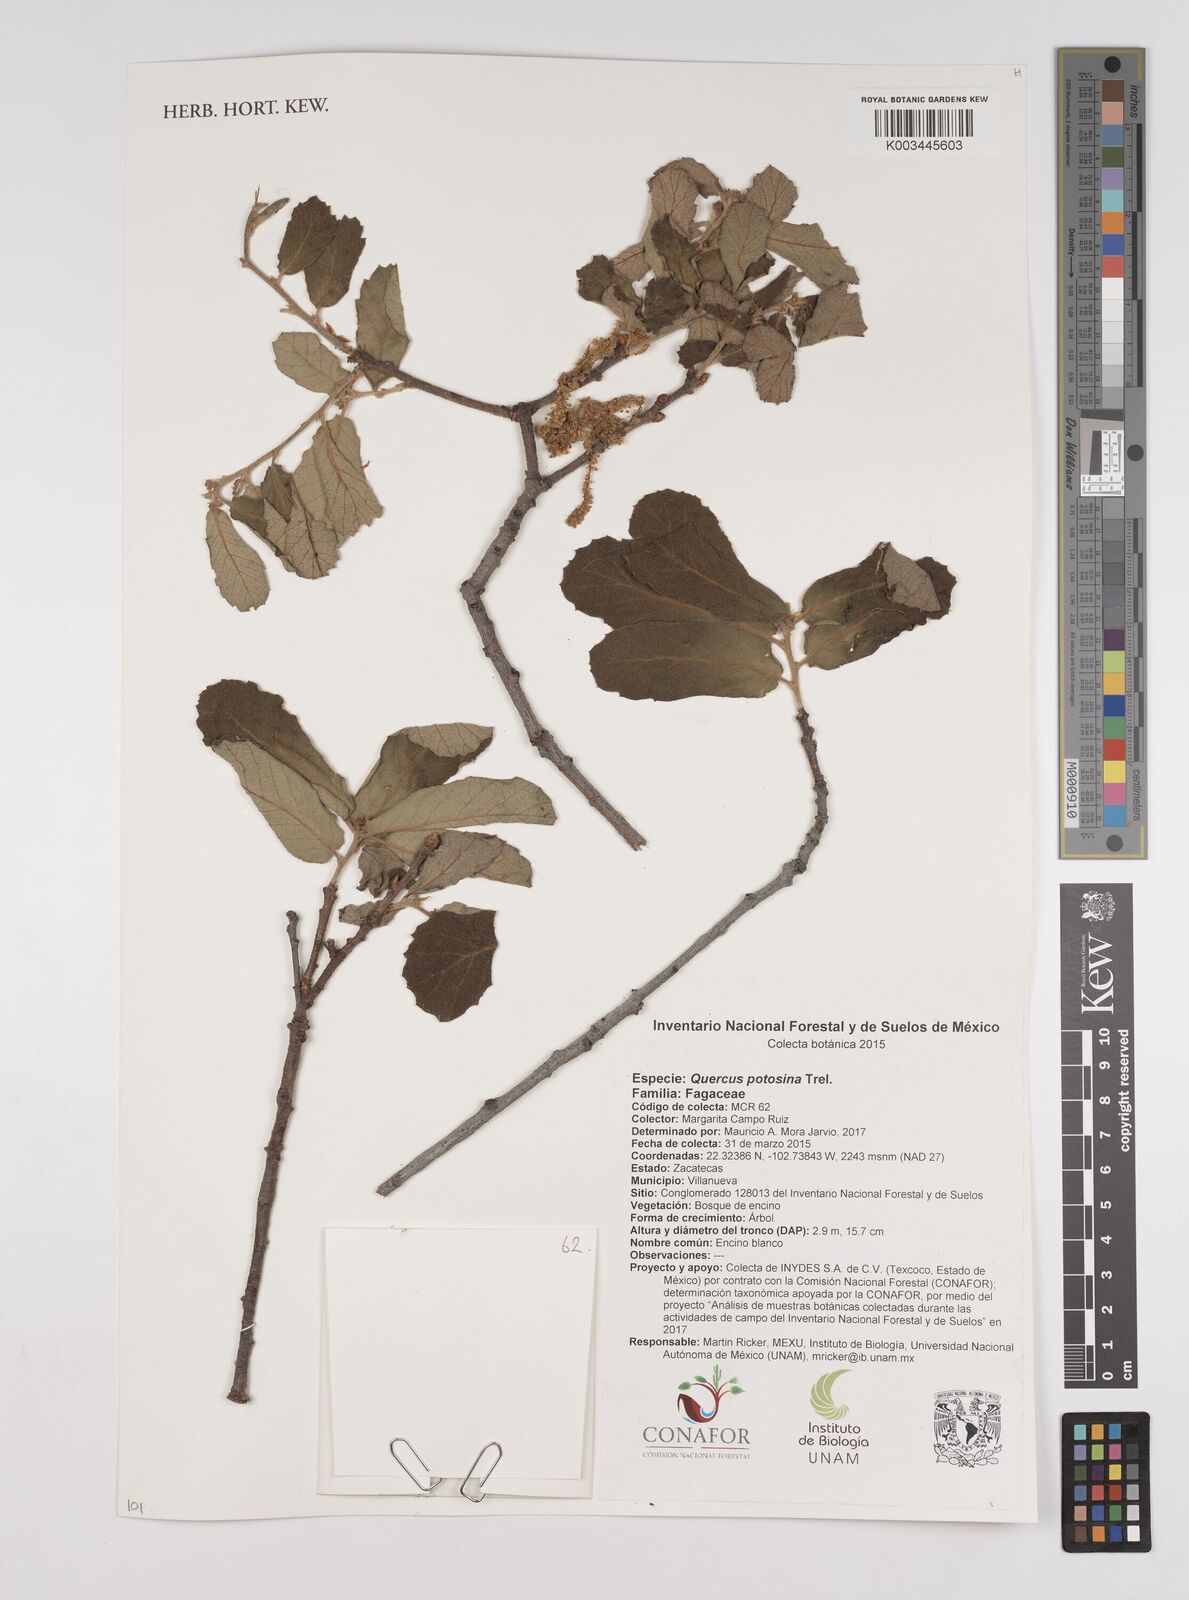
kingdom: Plantae
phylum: Tracheophyta
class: Magnoliopsida
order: Fagales
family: Fagaceae
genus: Quercus
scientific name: Quercus potosina
